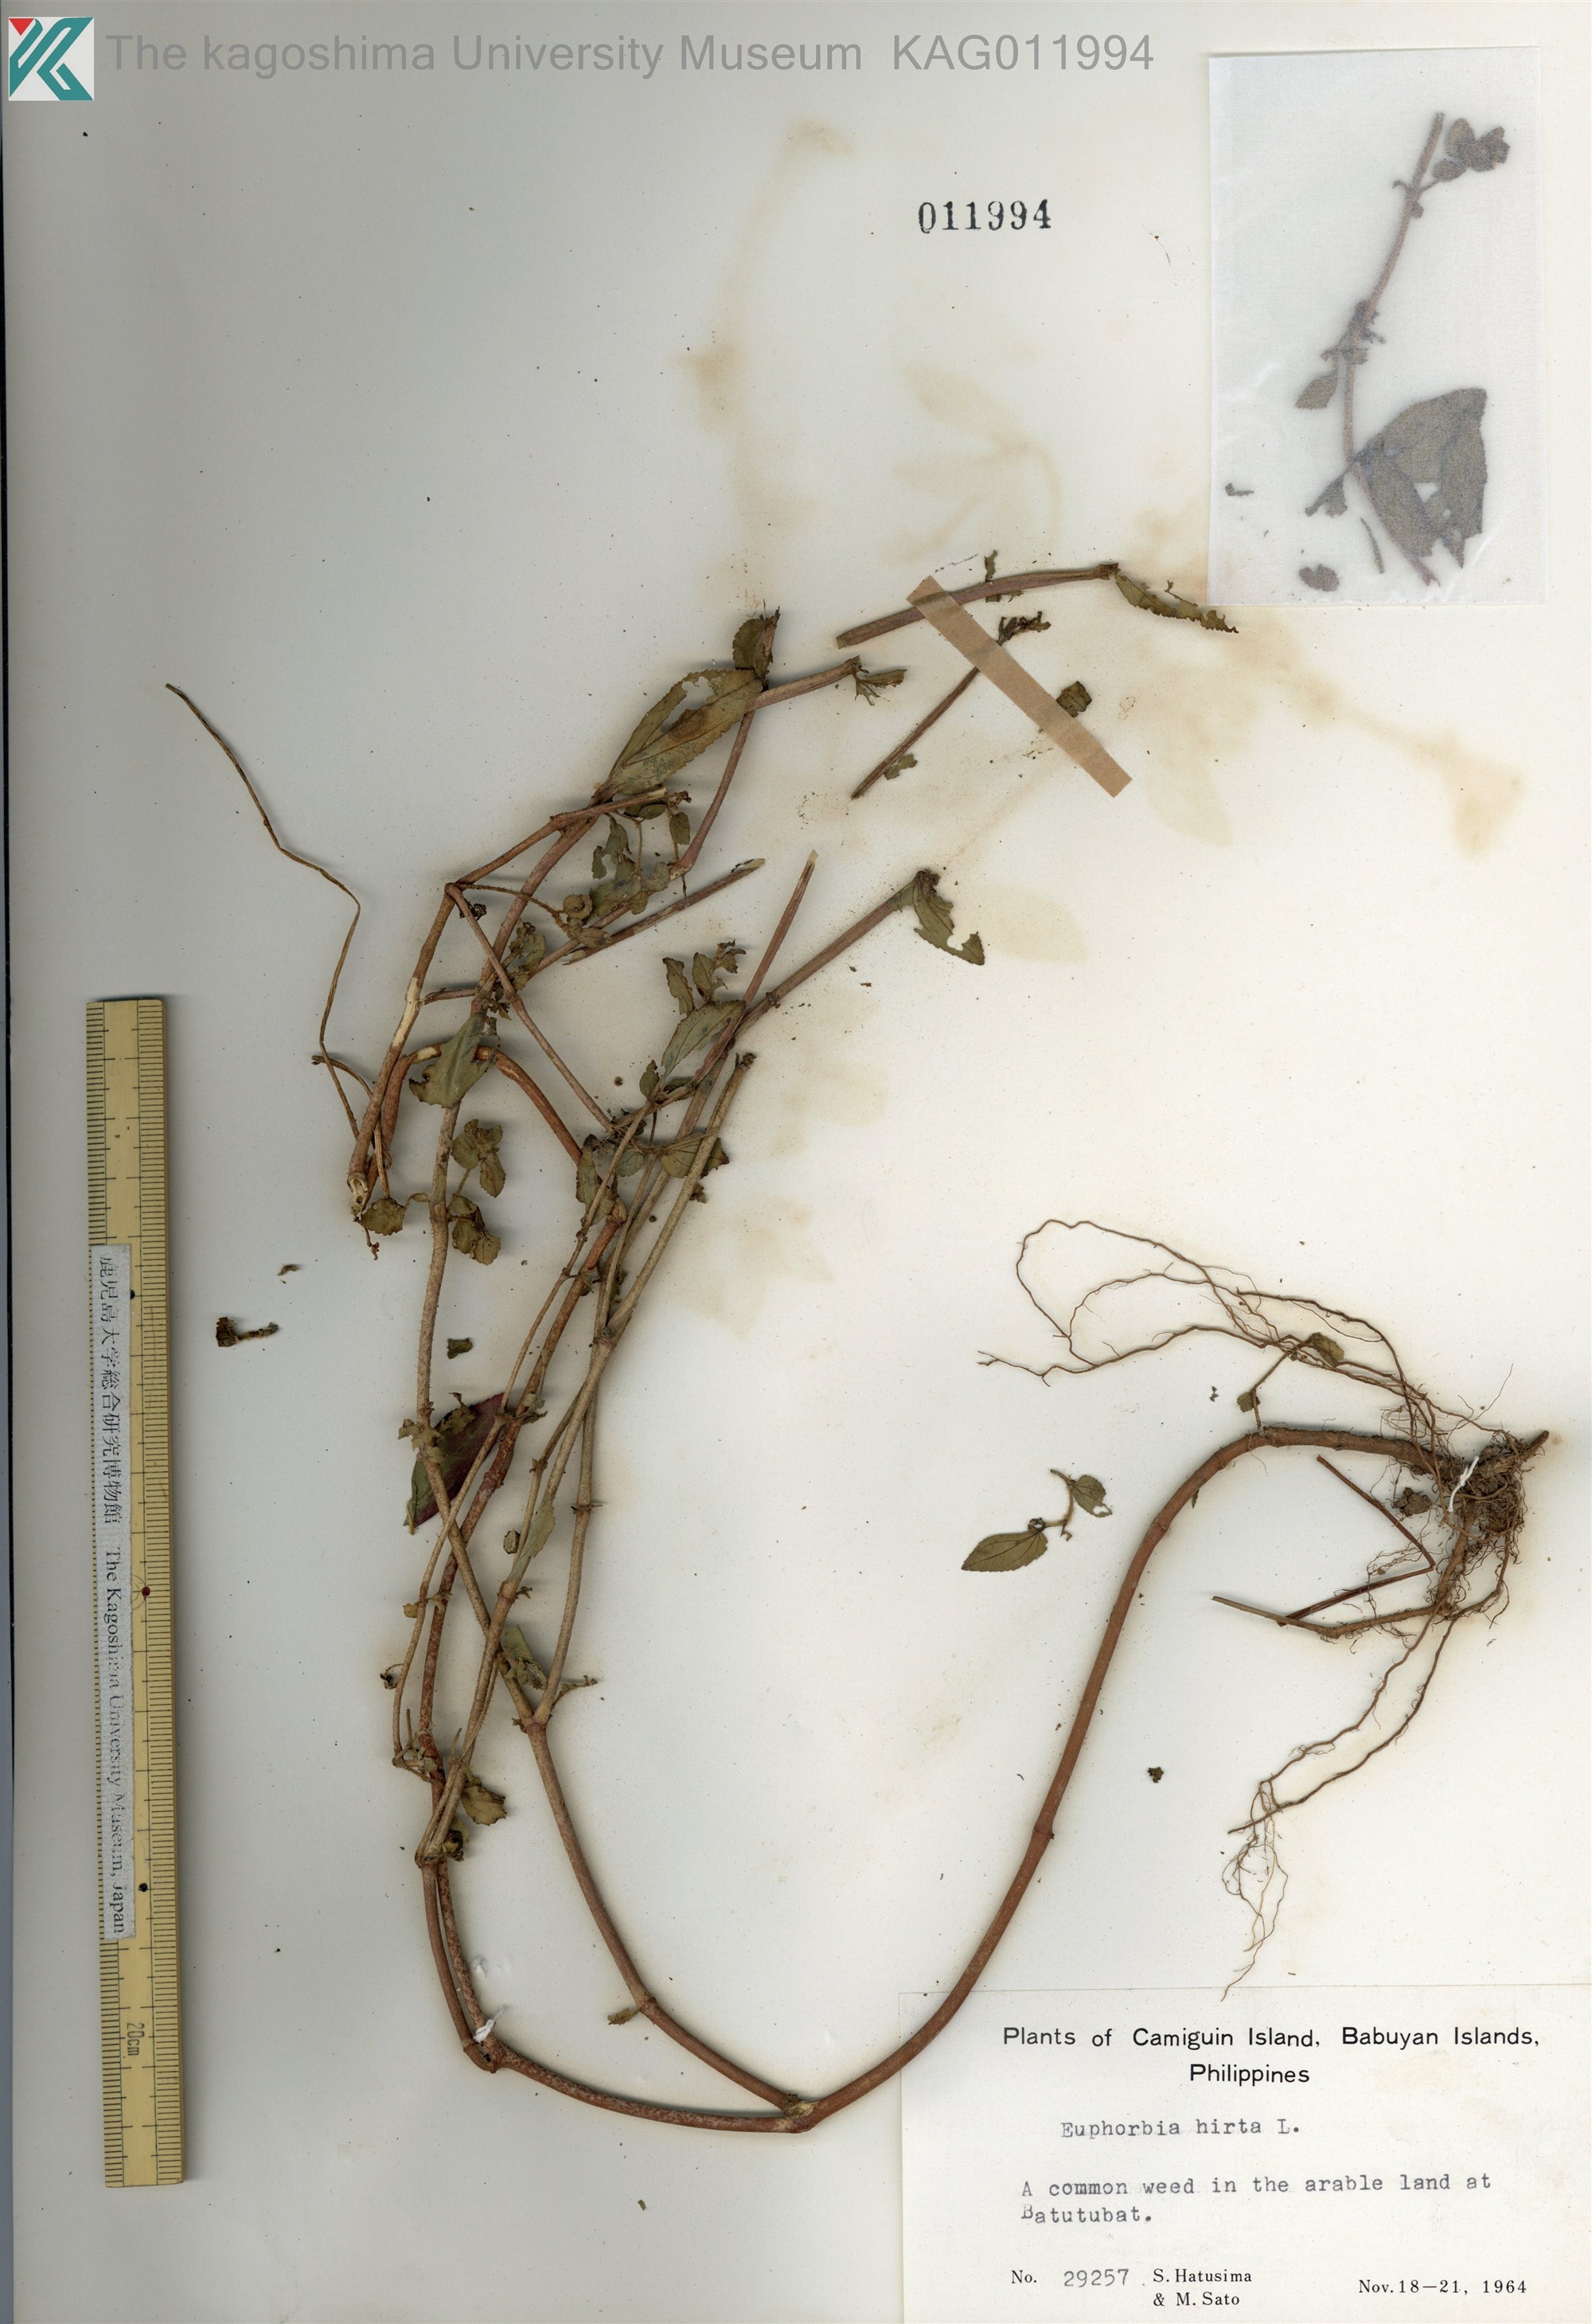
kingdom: Plantae
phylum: Tracheophyta
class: Magnoliopsida
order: Malpighiales
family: Euphorbiaceae
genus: Euphorbia
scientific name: Euphorbia hirta
